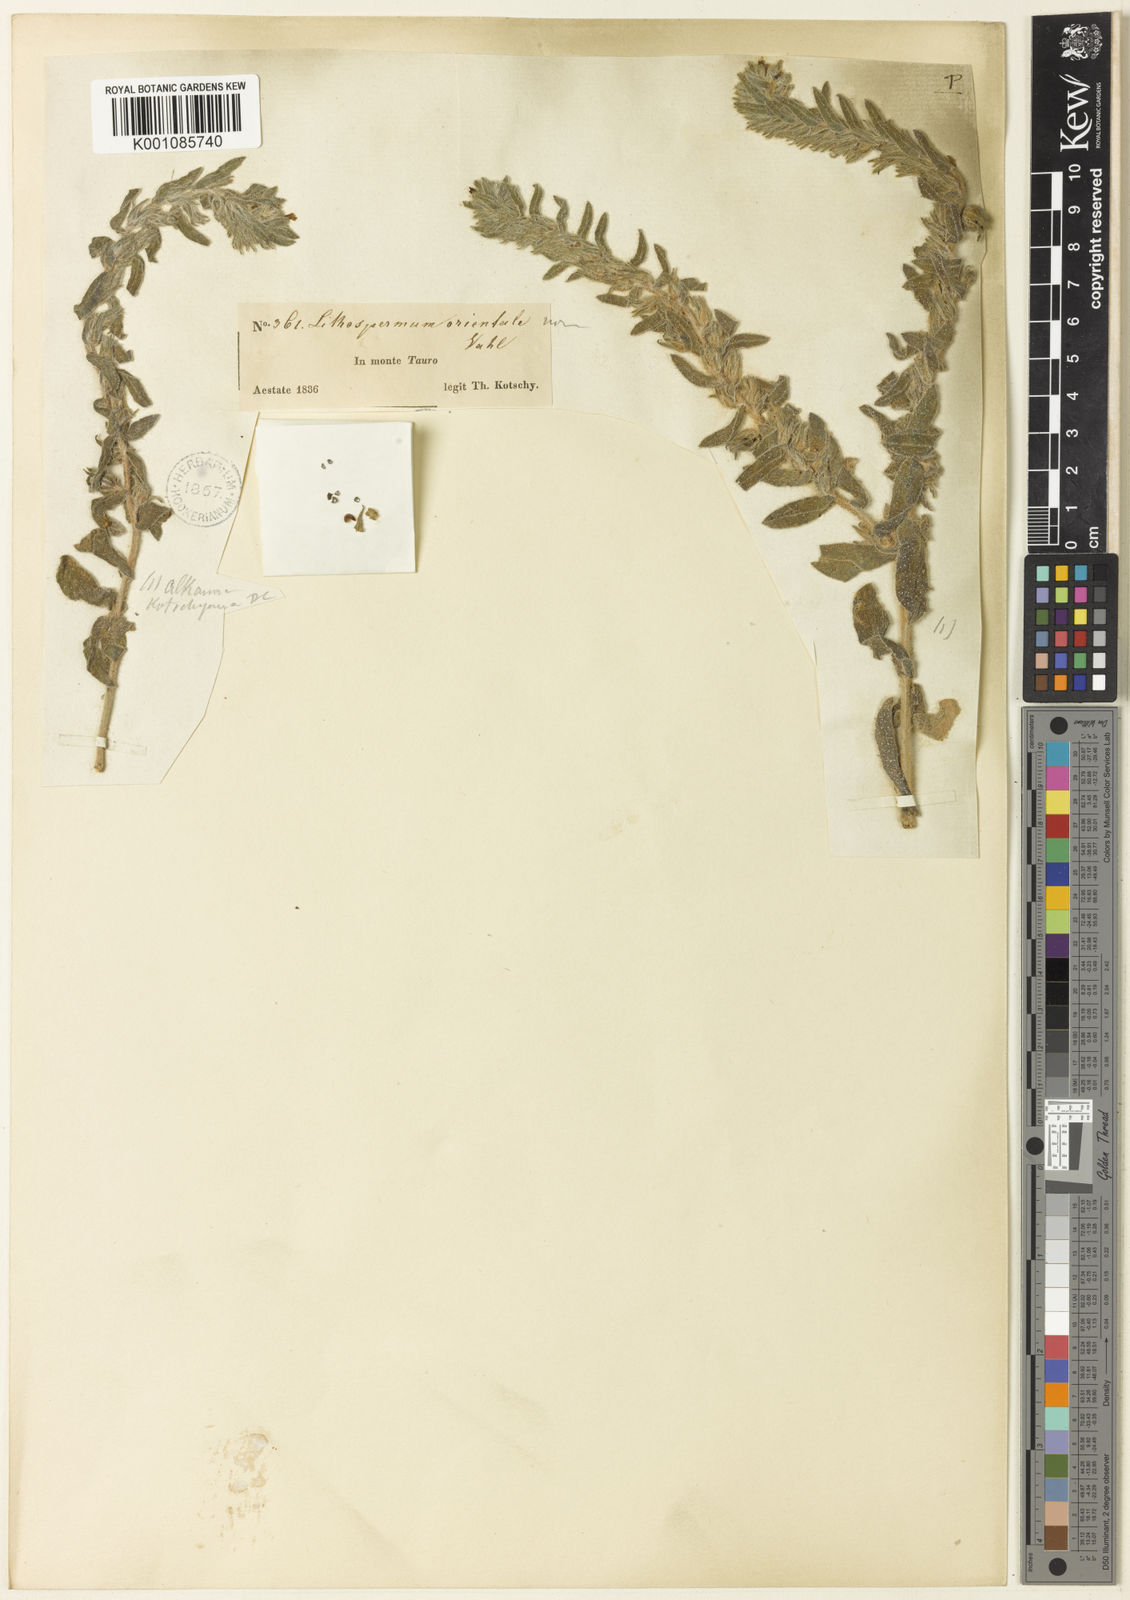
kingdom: Plantae
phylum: Tracheophyta
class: Magnoliopsida
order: Boraginales
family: Boraginaceae
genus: Alkanna
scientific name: Alkanna kotschyana
